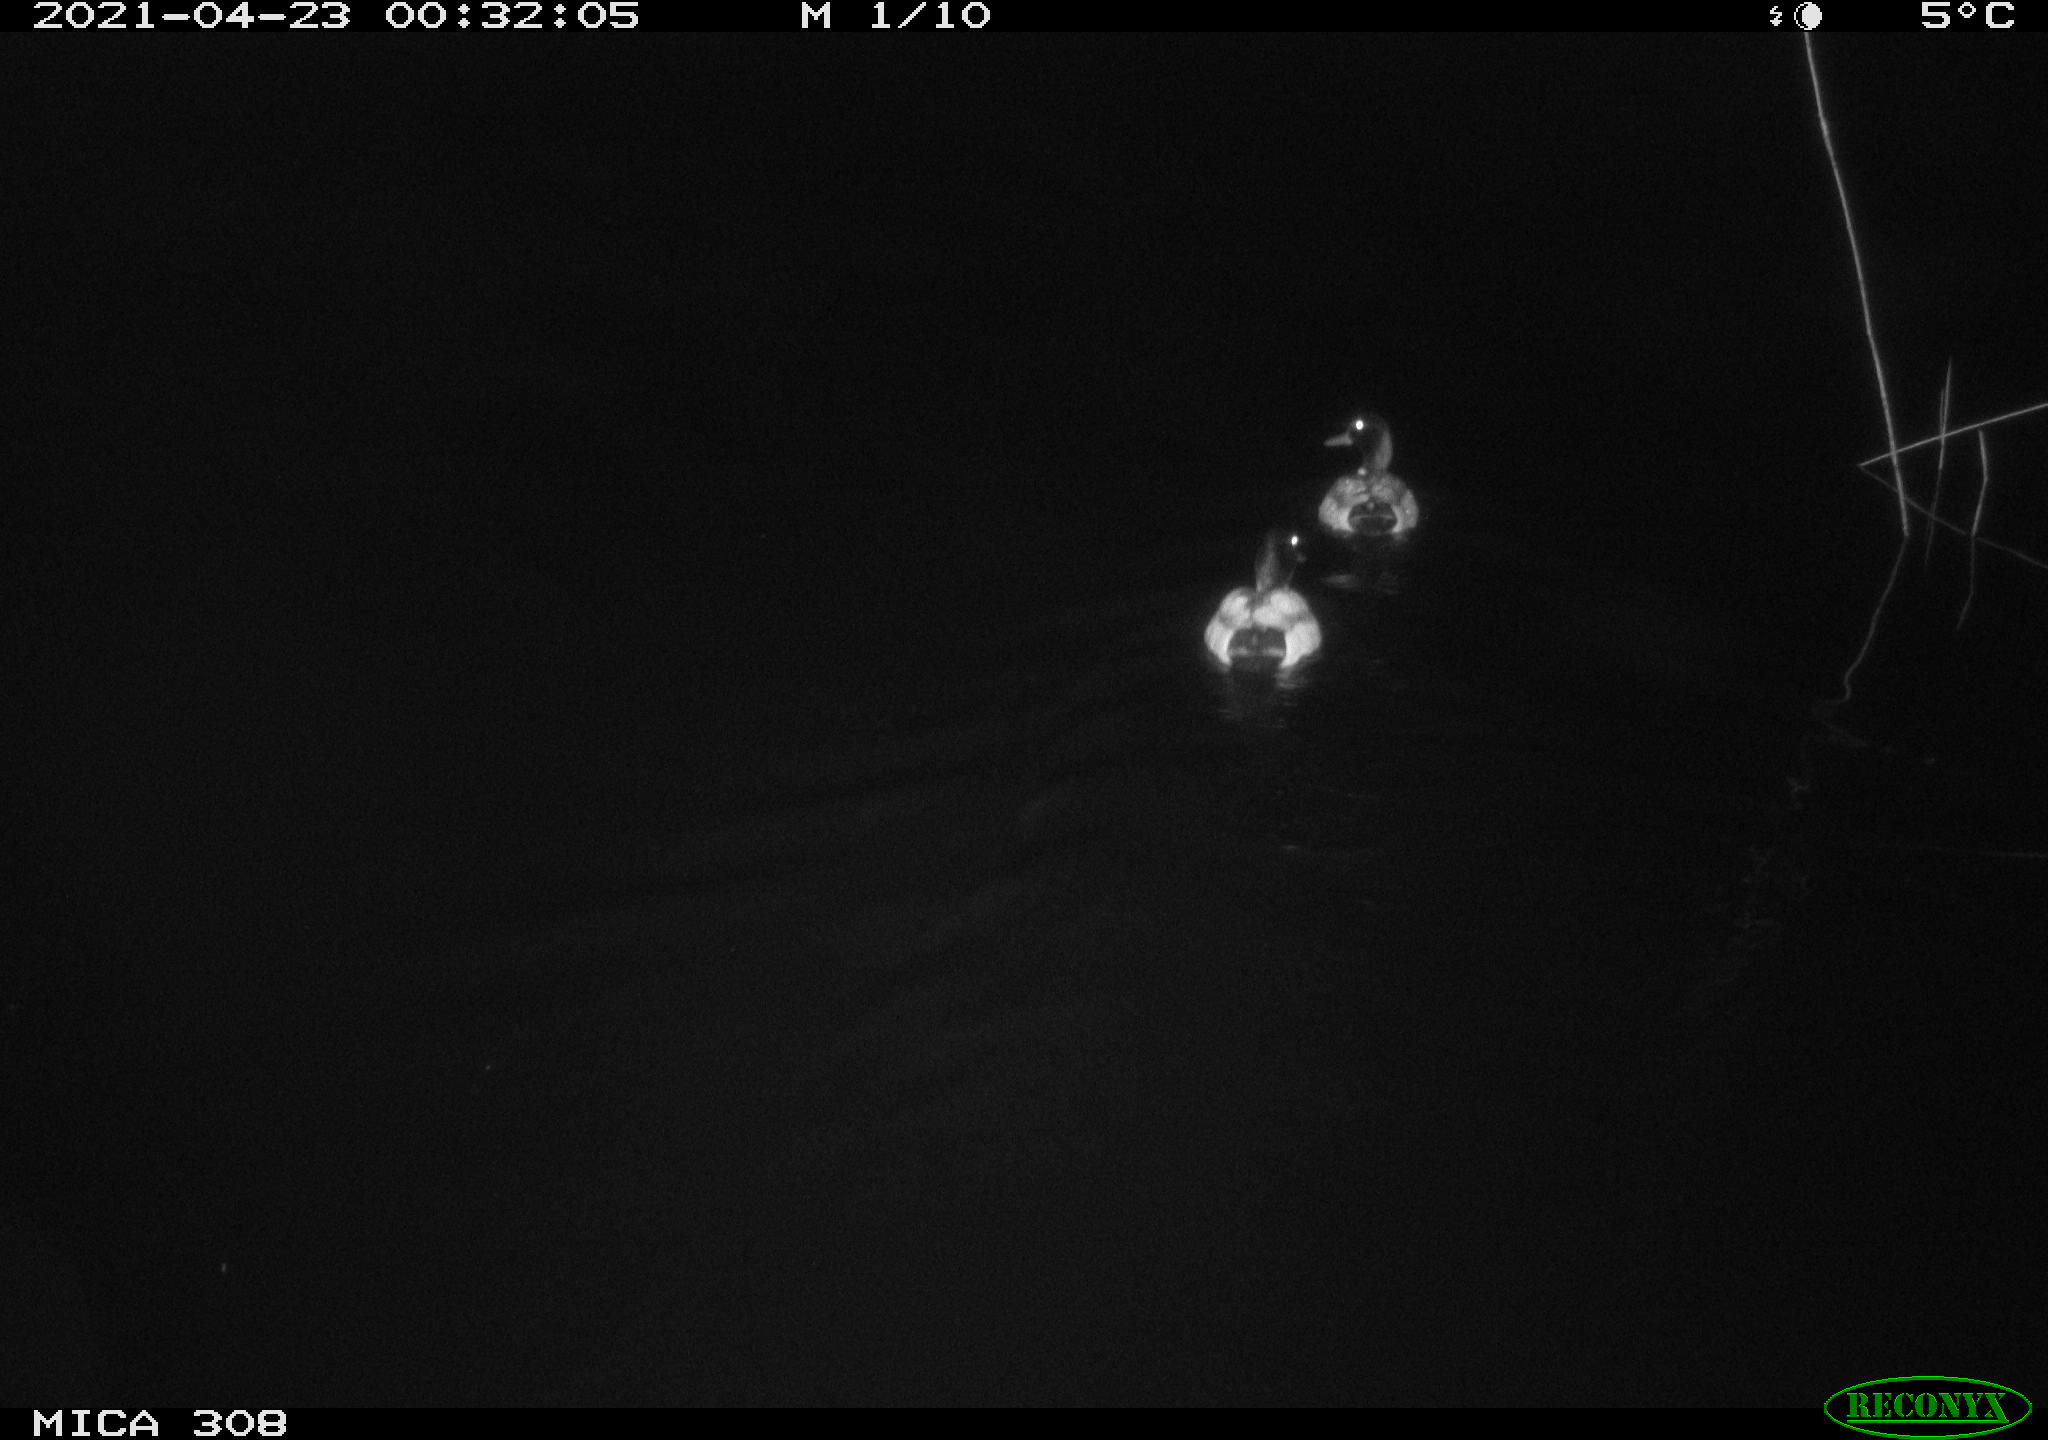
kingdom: Animalia
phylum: Chordata
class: Aves
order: Anseriformes
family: Anatidae
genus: Anas
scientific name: Anas platyrhynchos
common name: Mallard
